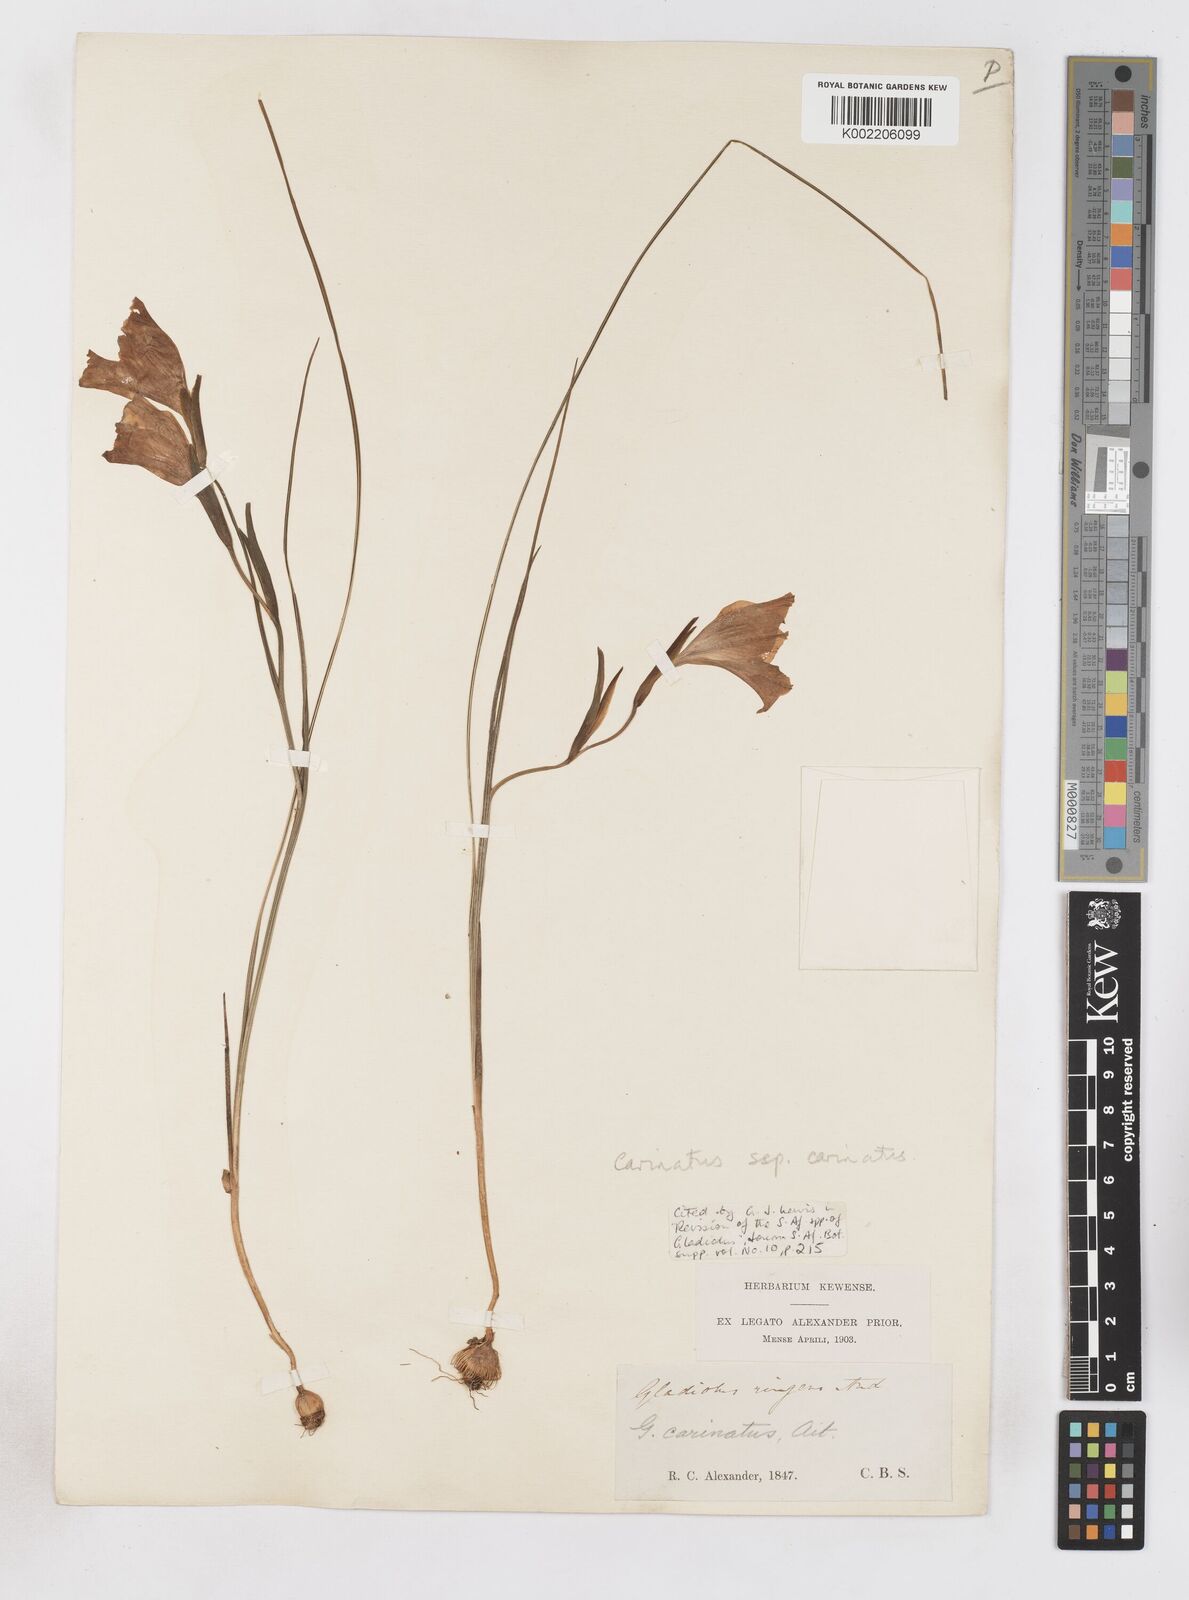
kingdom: Plantae
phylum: Tracheophyta
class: Liliopsida
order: Asparagales
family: Iridaceae
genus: Gladiolus
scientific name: Gladiolus carinatus
